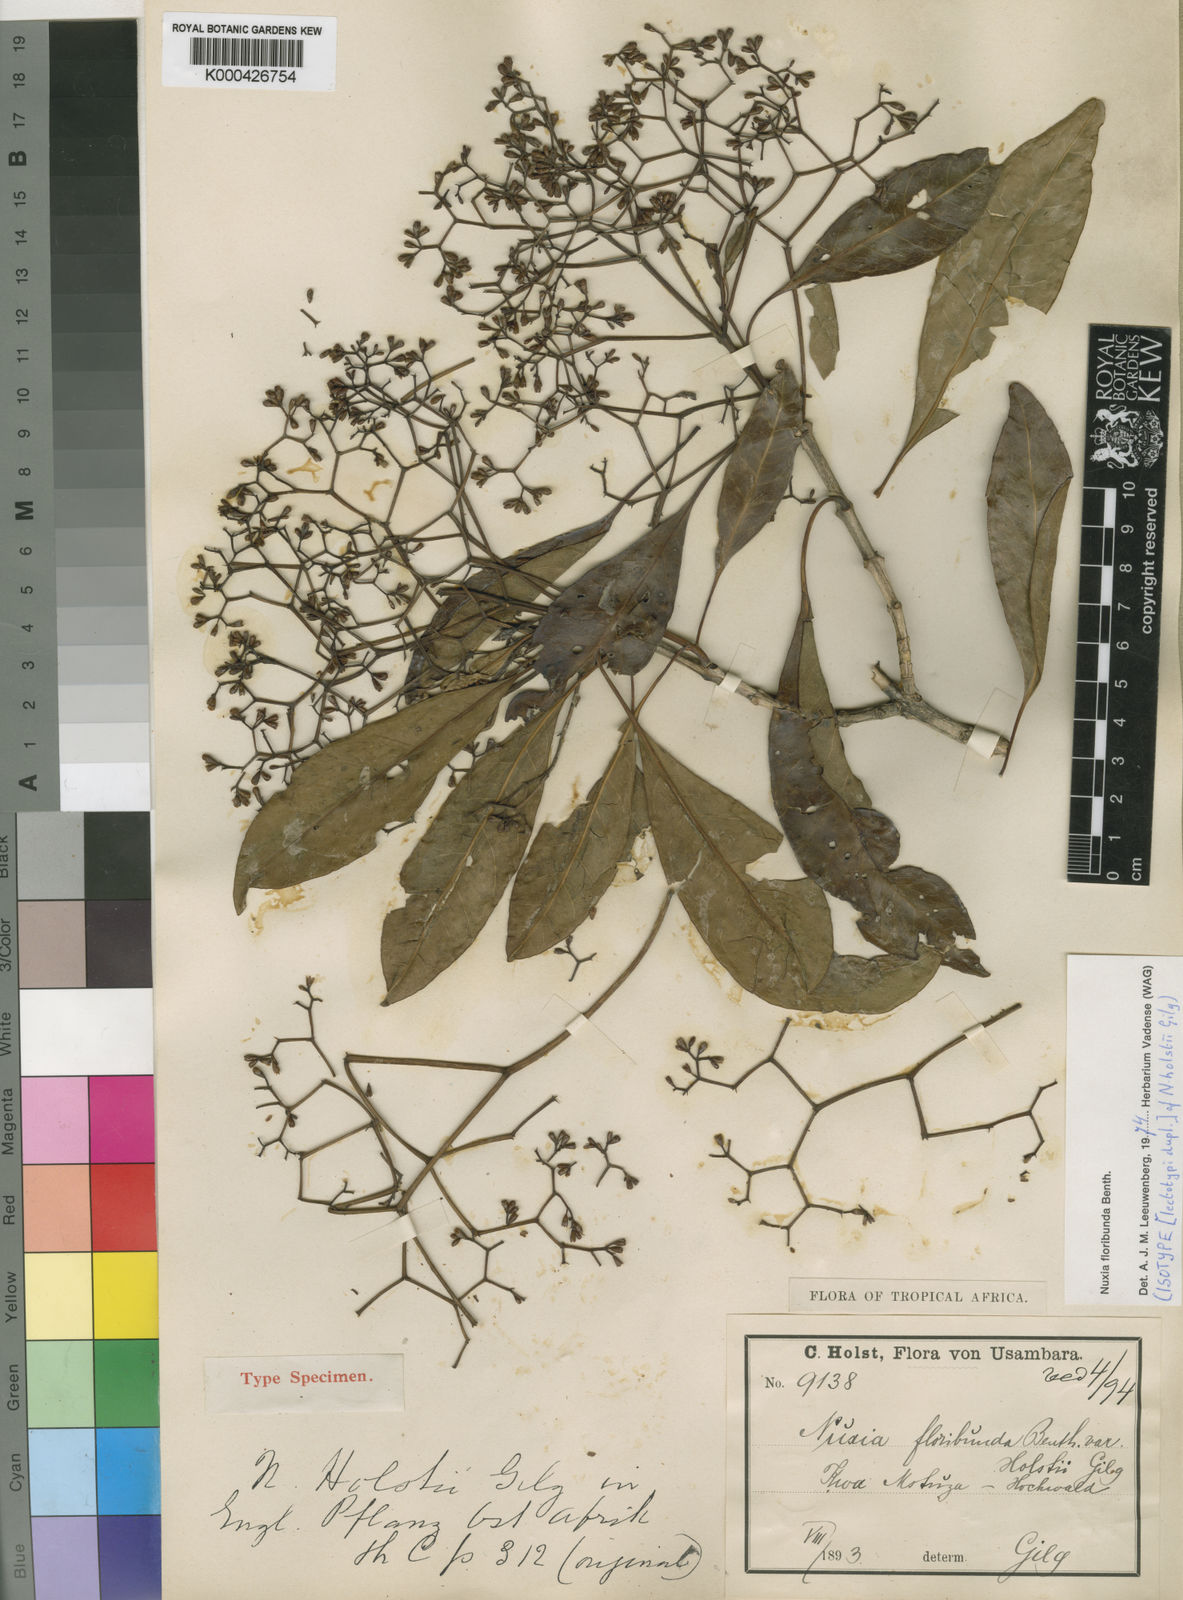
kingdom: Plantae
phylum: Tracheophyta
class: Magnoliopsida
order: Lamiales
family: Stilbaceae
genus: Nuxia
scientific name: Nuxia floribunda
